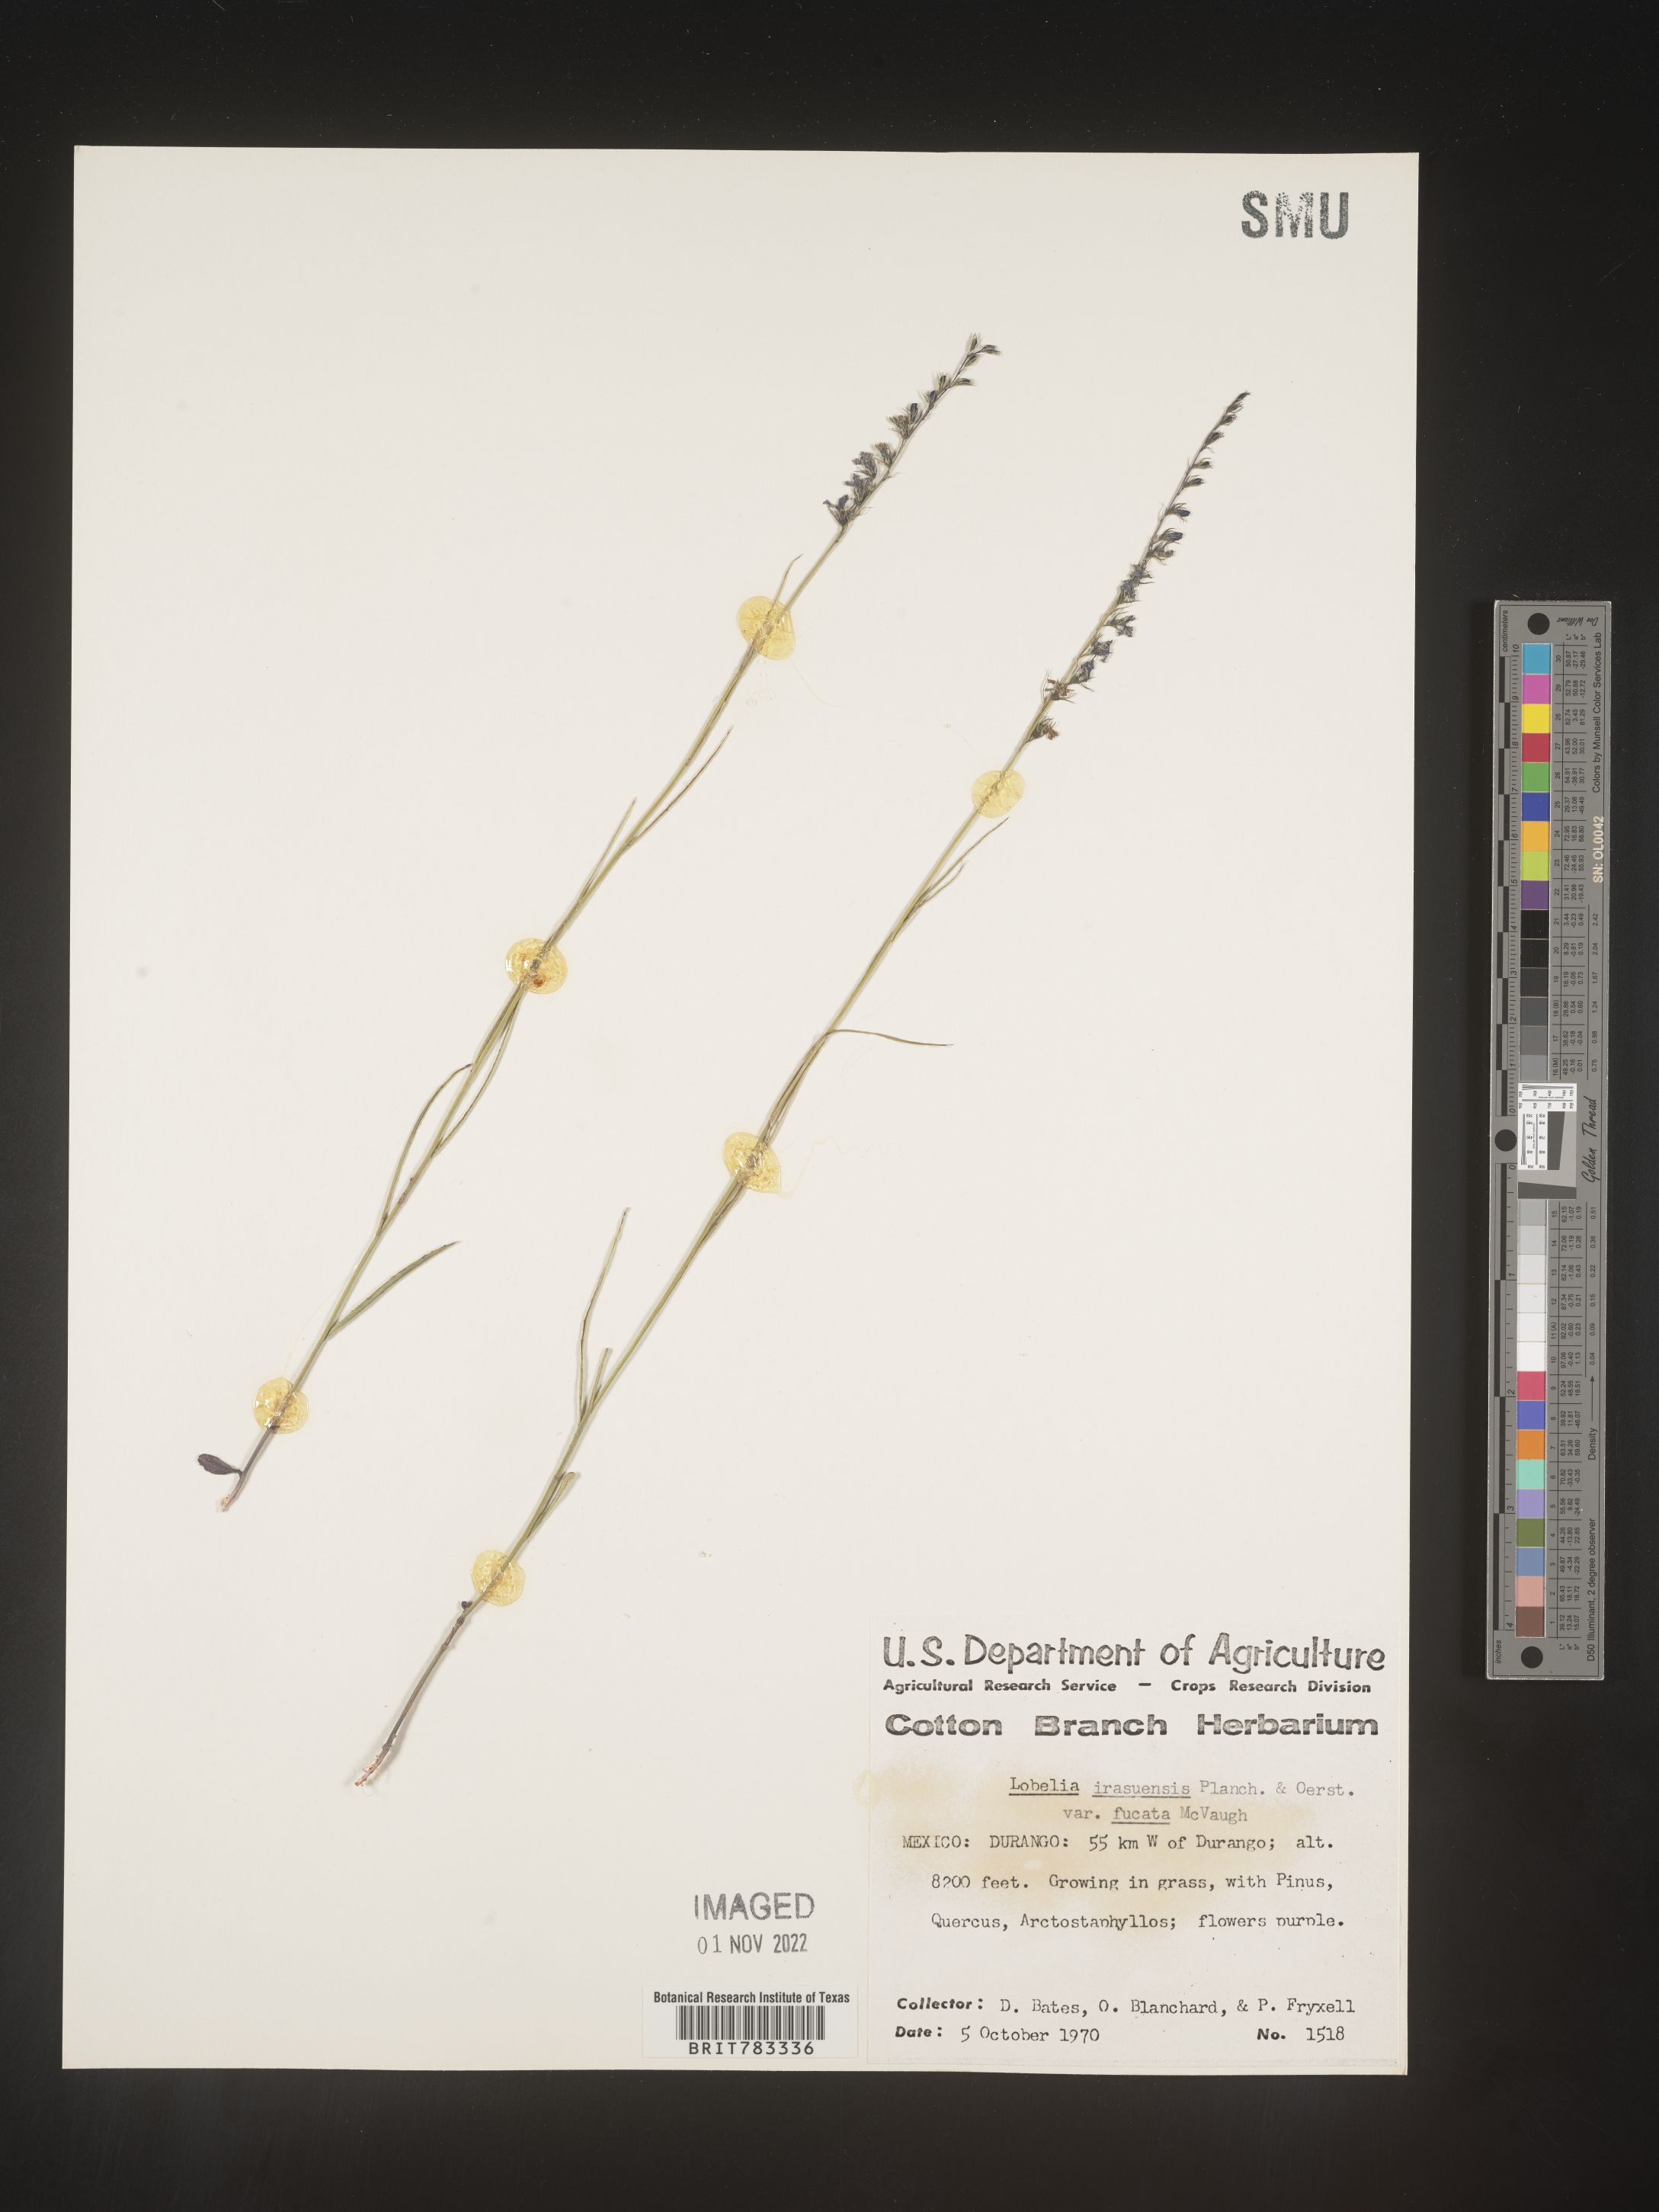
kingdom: Plantae
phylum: Tracheophyta
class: Magnoliopsida
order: Asterales
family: Campanulaceae
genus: Lobelia
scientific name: Lobelia
